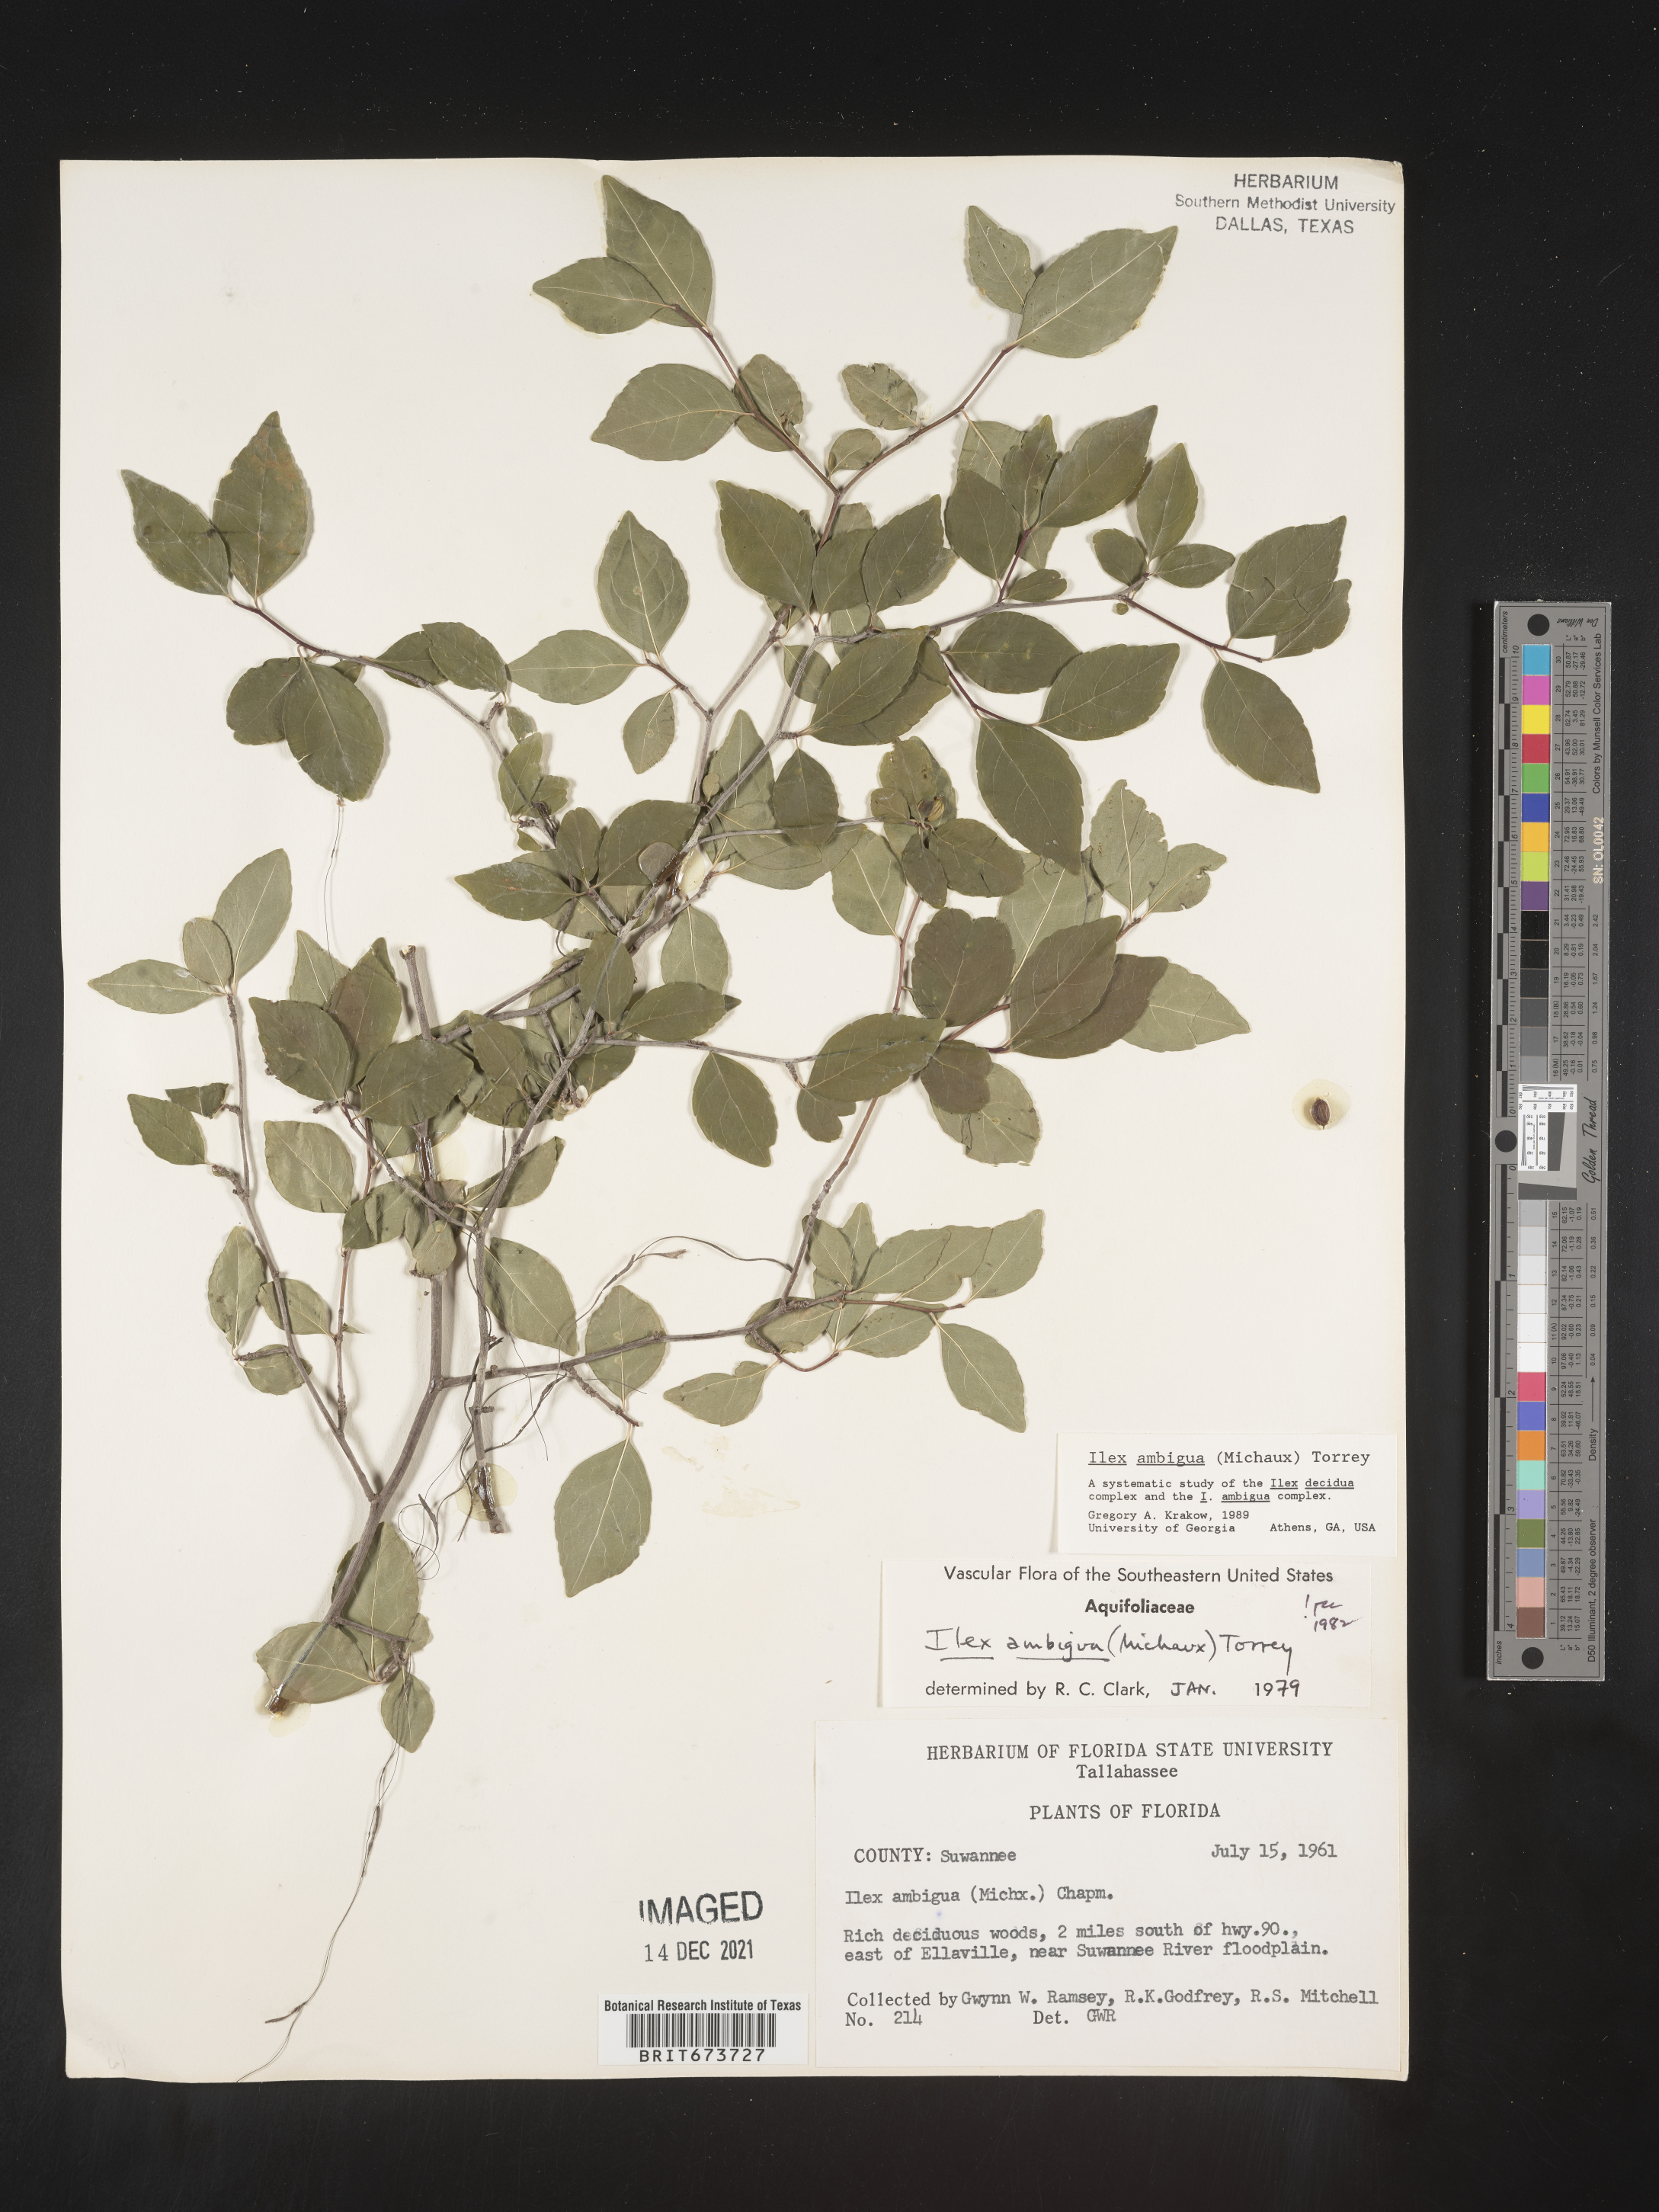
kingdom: Plantae
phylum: Tracheophyta
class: Magnoliopsida
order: Aquifoliales
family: Aquifoliaceae
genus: Ilex
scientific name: Ilex ambigua
